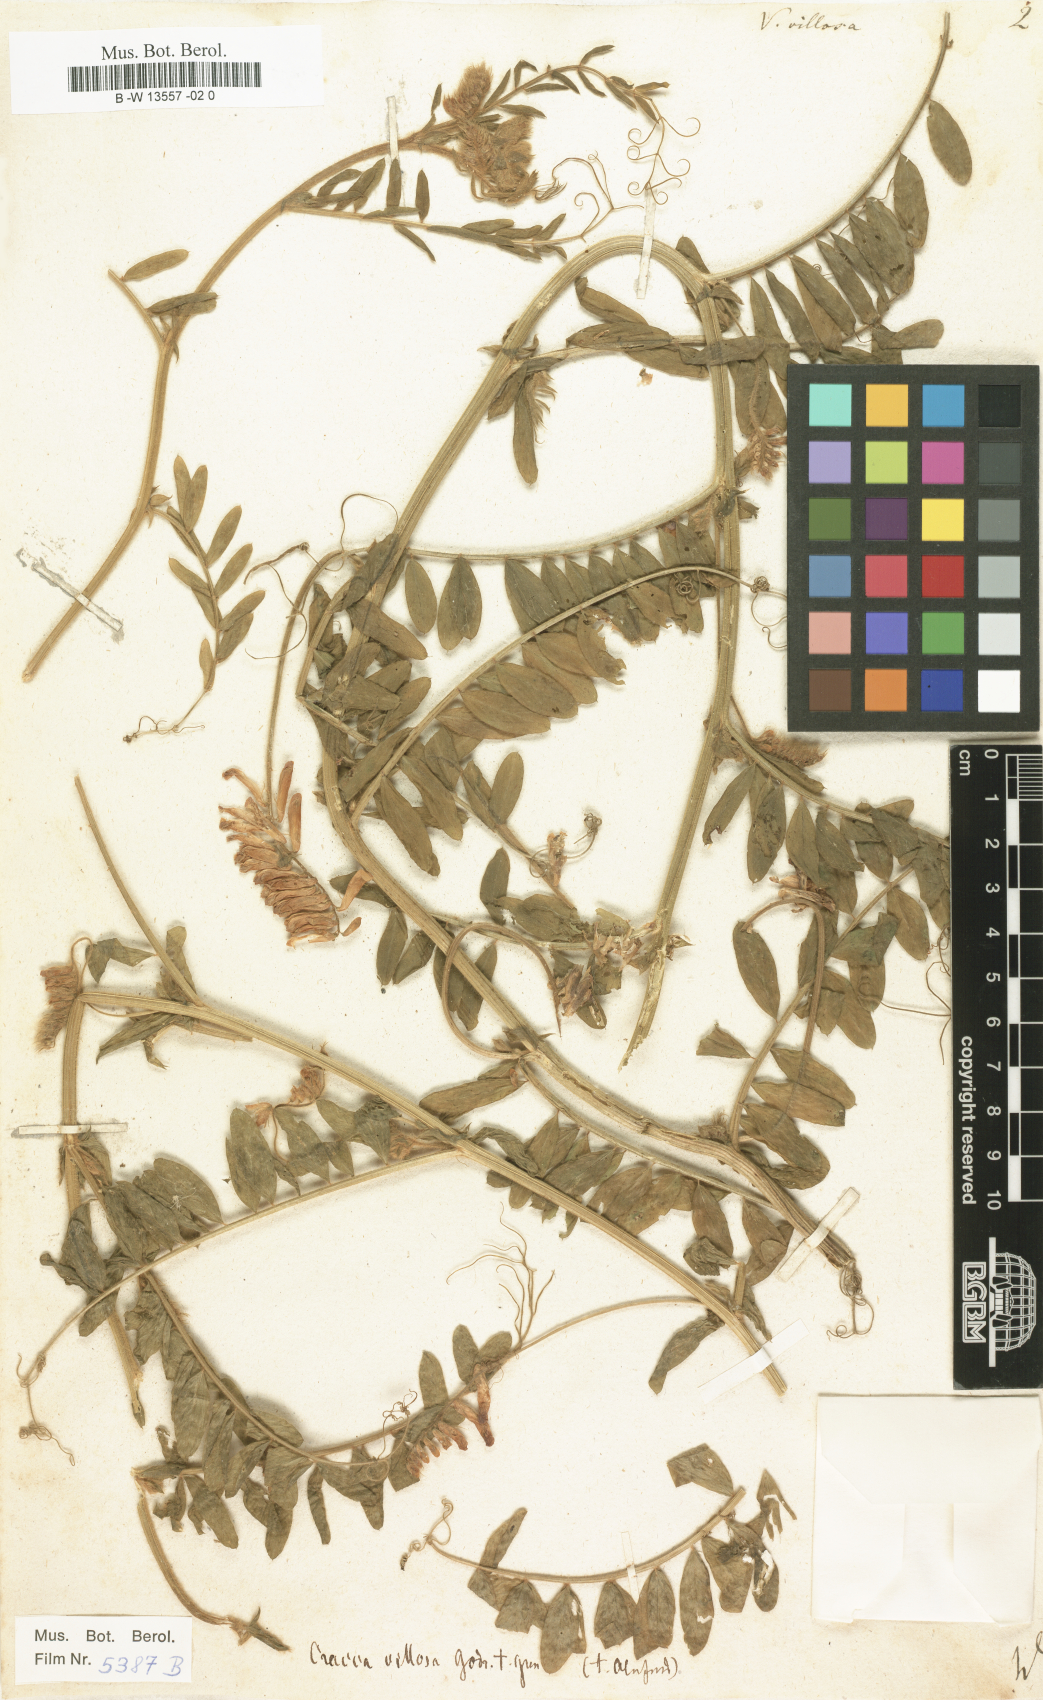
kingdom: Plantae
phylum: Tracheophyta
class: Magnoliopsida
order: Fabales
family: Fabaceae
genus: Vicia
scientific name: Vicia villosa
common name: Fodder vetch
